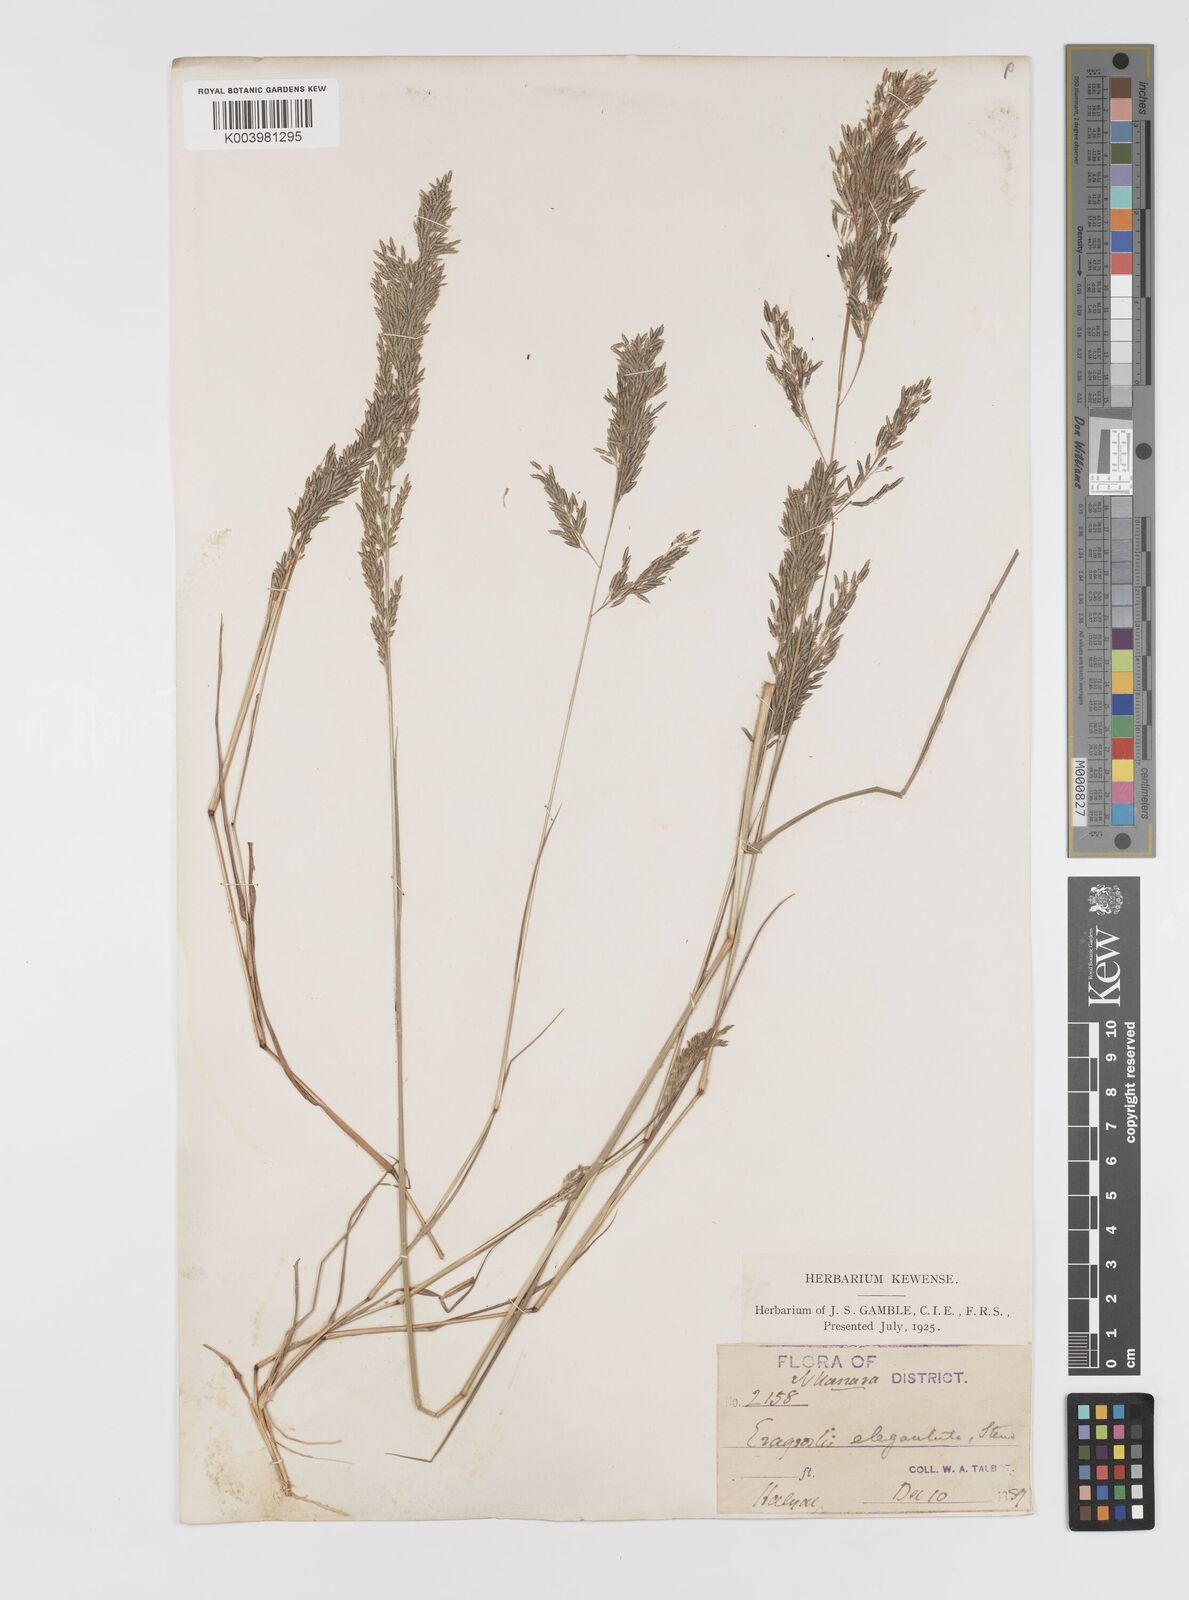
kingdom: Plantae
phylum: Tracheophyta
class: Liliopsida
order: Poales
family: Poaceae
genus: Eragrostis
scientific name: Eragrostis gangetica
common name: Slimflower lovegrass
